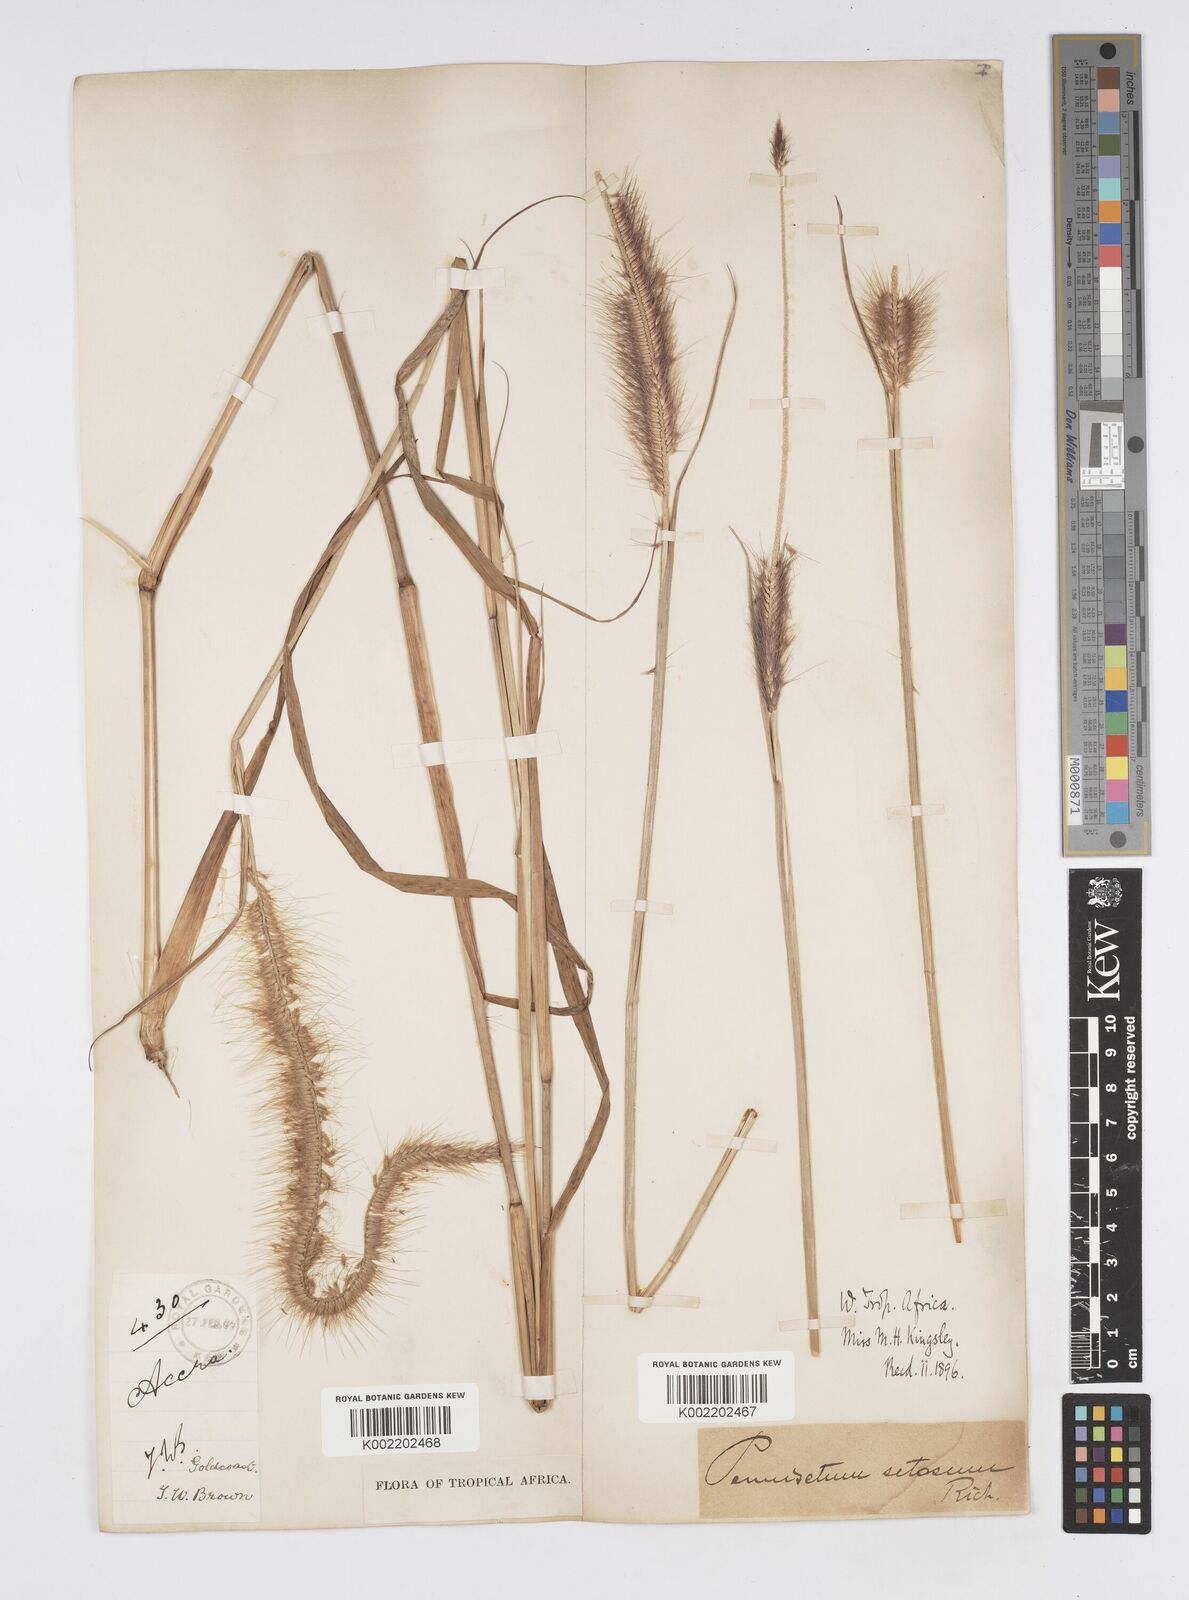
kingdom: Plantae
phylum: Tracheophyta
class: Liliopsida
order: Poales
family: Poaceae
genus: Setaria
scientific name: Setaria parviflora
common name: Knotroot bristle-grass
